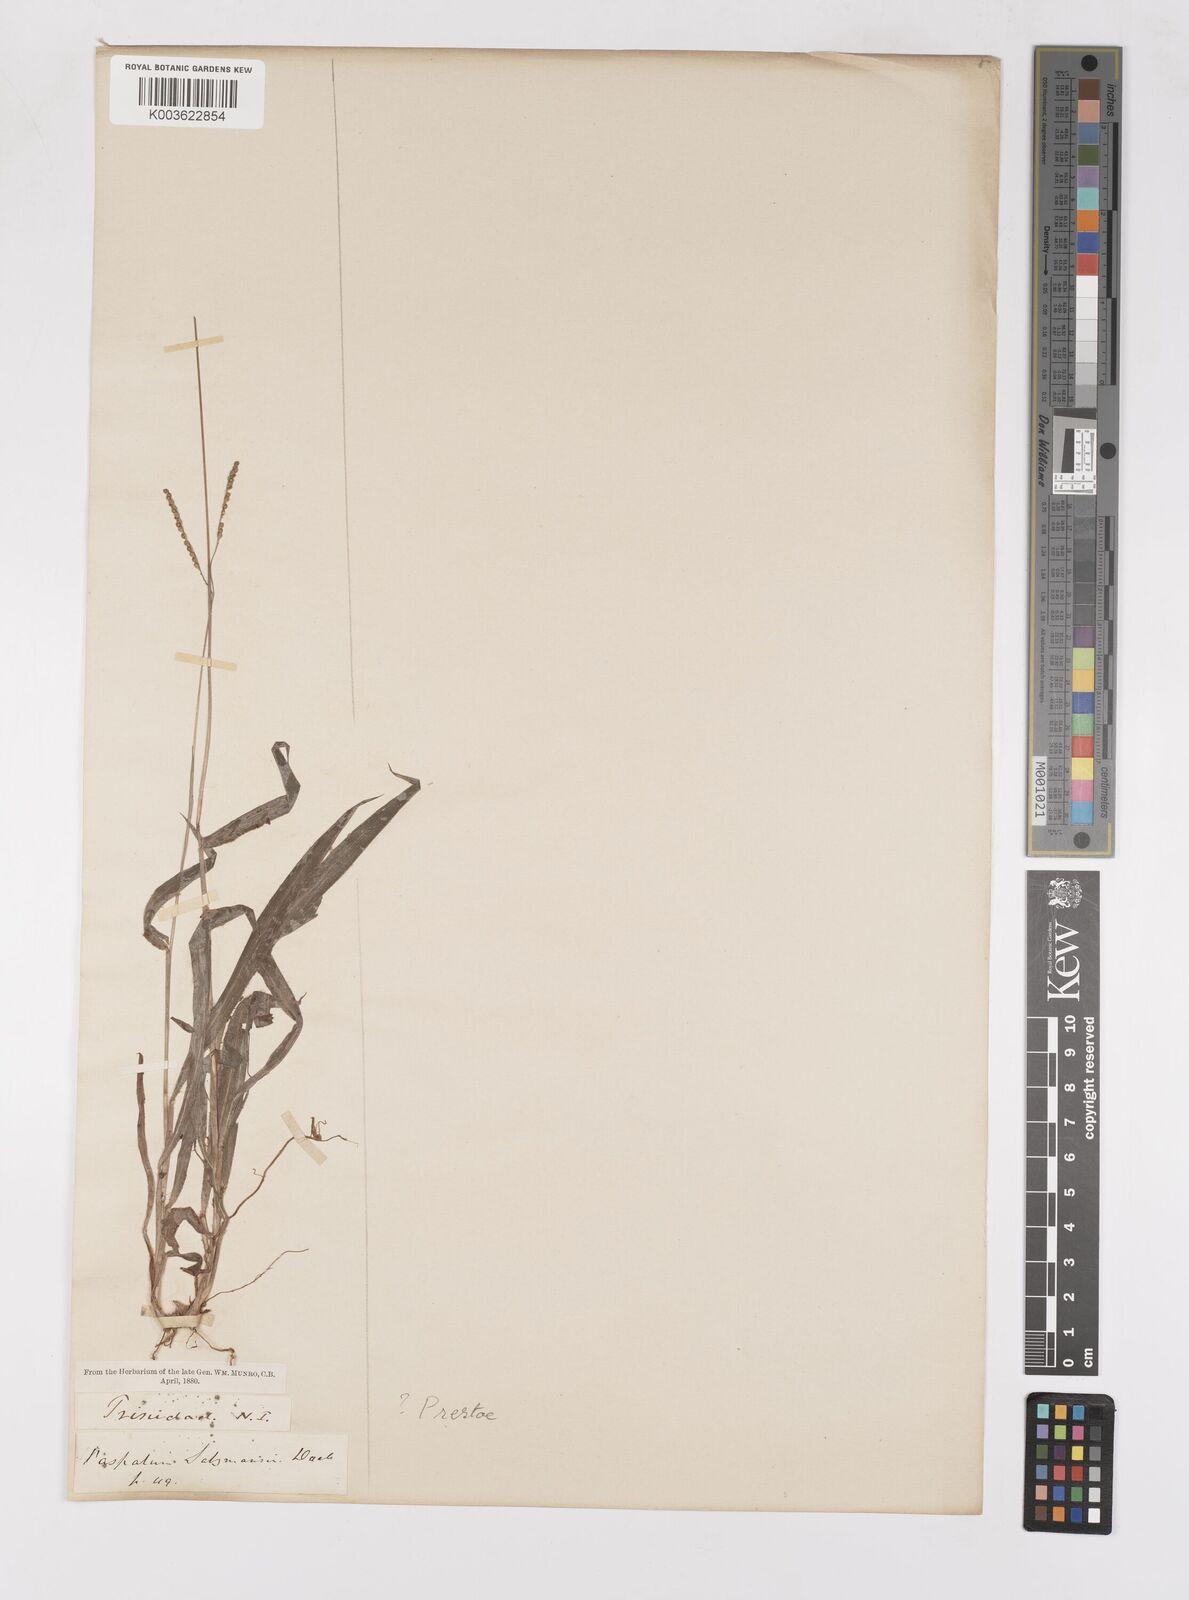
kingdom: Plantae
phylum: Tracheophyta
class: Liliopsida
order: Poales
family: Poaceae
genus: Paspalum
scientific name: Paspalum oligostachyum
